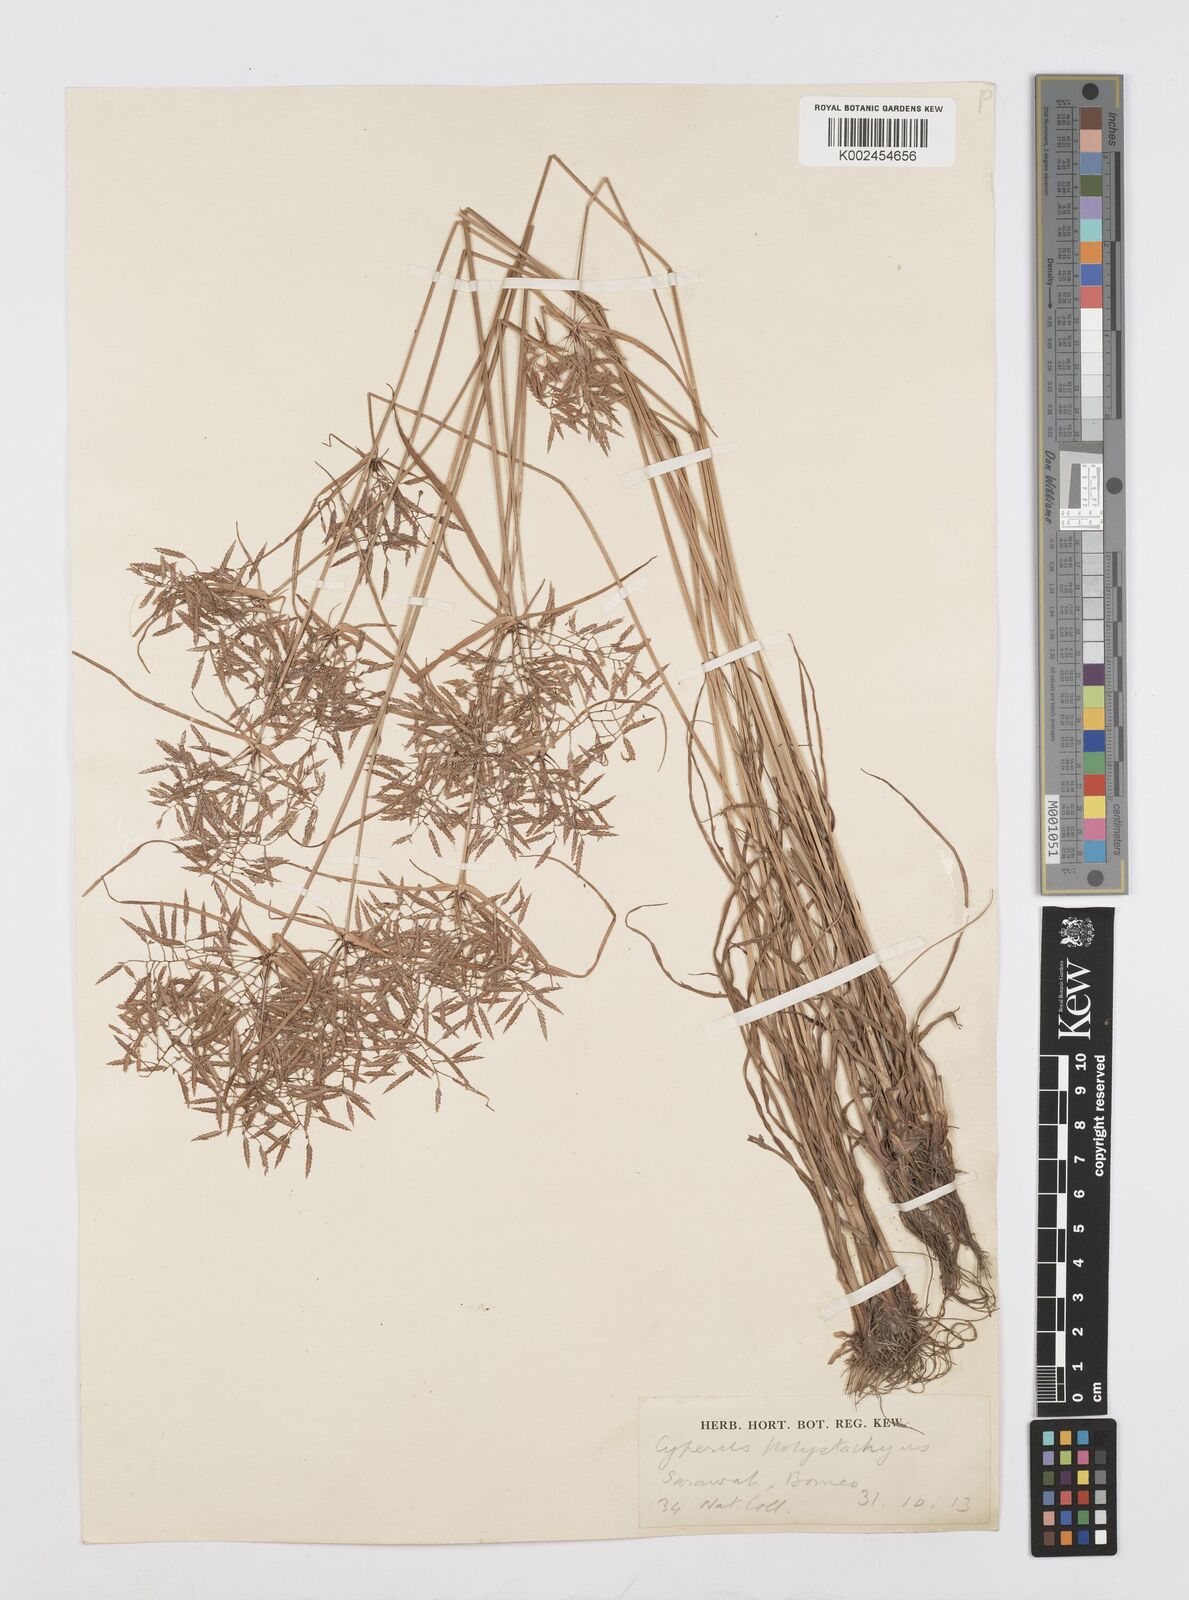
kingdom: Plantae
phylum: Tracheophyta
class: Liliopsida
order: Poales
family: Cyperaceae
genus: Cyperus
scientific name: Cyperus polystachyos
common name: Bunchy flat sedge
